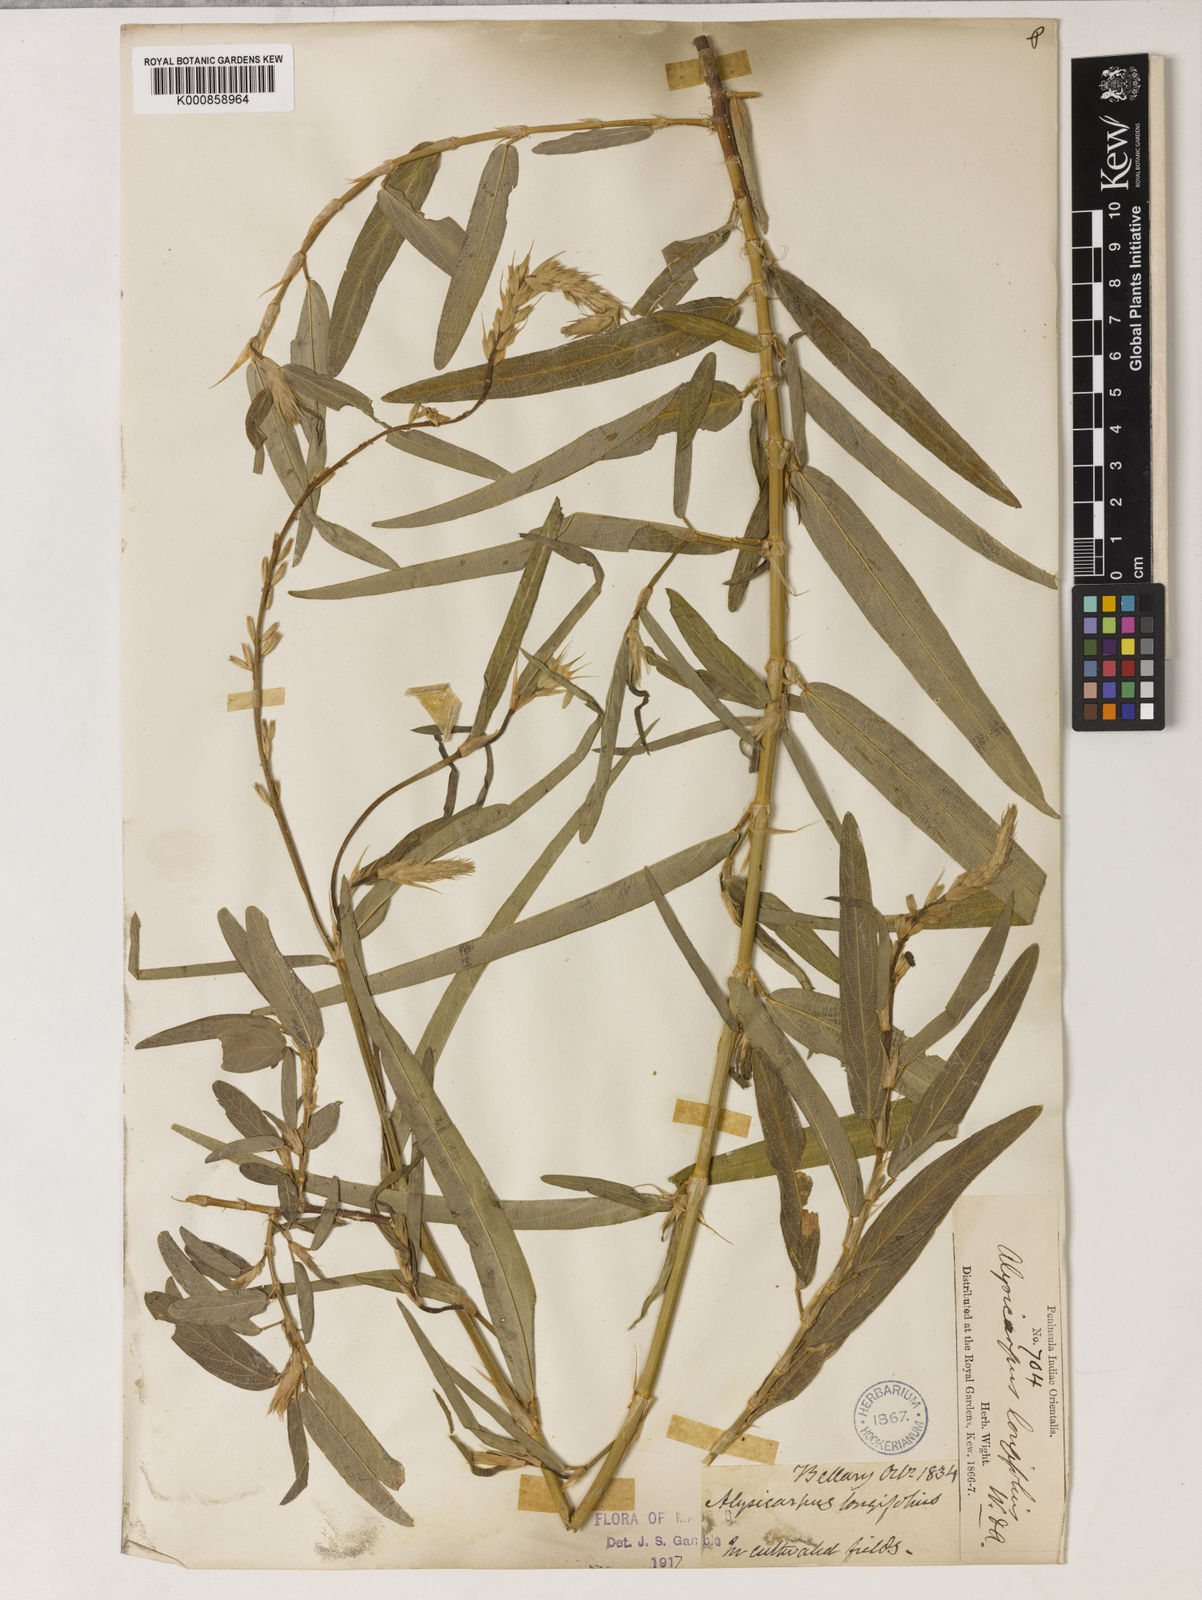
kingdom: Plantae
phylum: Tracheophyta
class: Magnoliopsida
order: Fabales
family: Fabaceae
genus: Alysicarpus
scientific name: Alysicarpus longifolius
